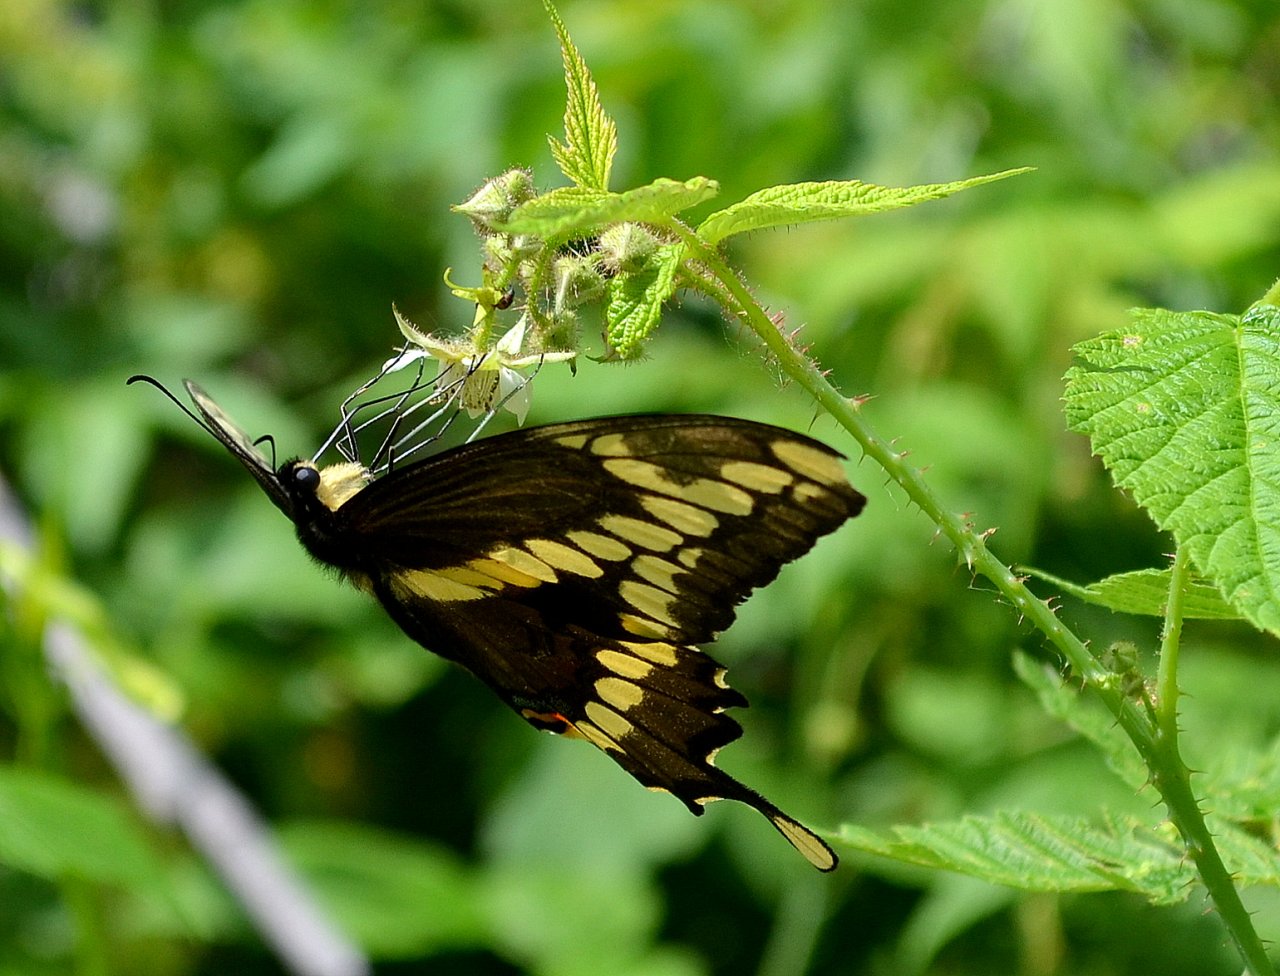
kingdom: Animalia
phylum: Arthropoda
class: Insecta
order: Lepidoptera
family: Papilionidae
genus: Papilio
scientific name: Papilio cresphontes
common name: Eastern Giant Swallowtail
